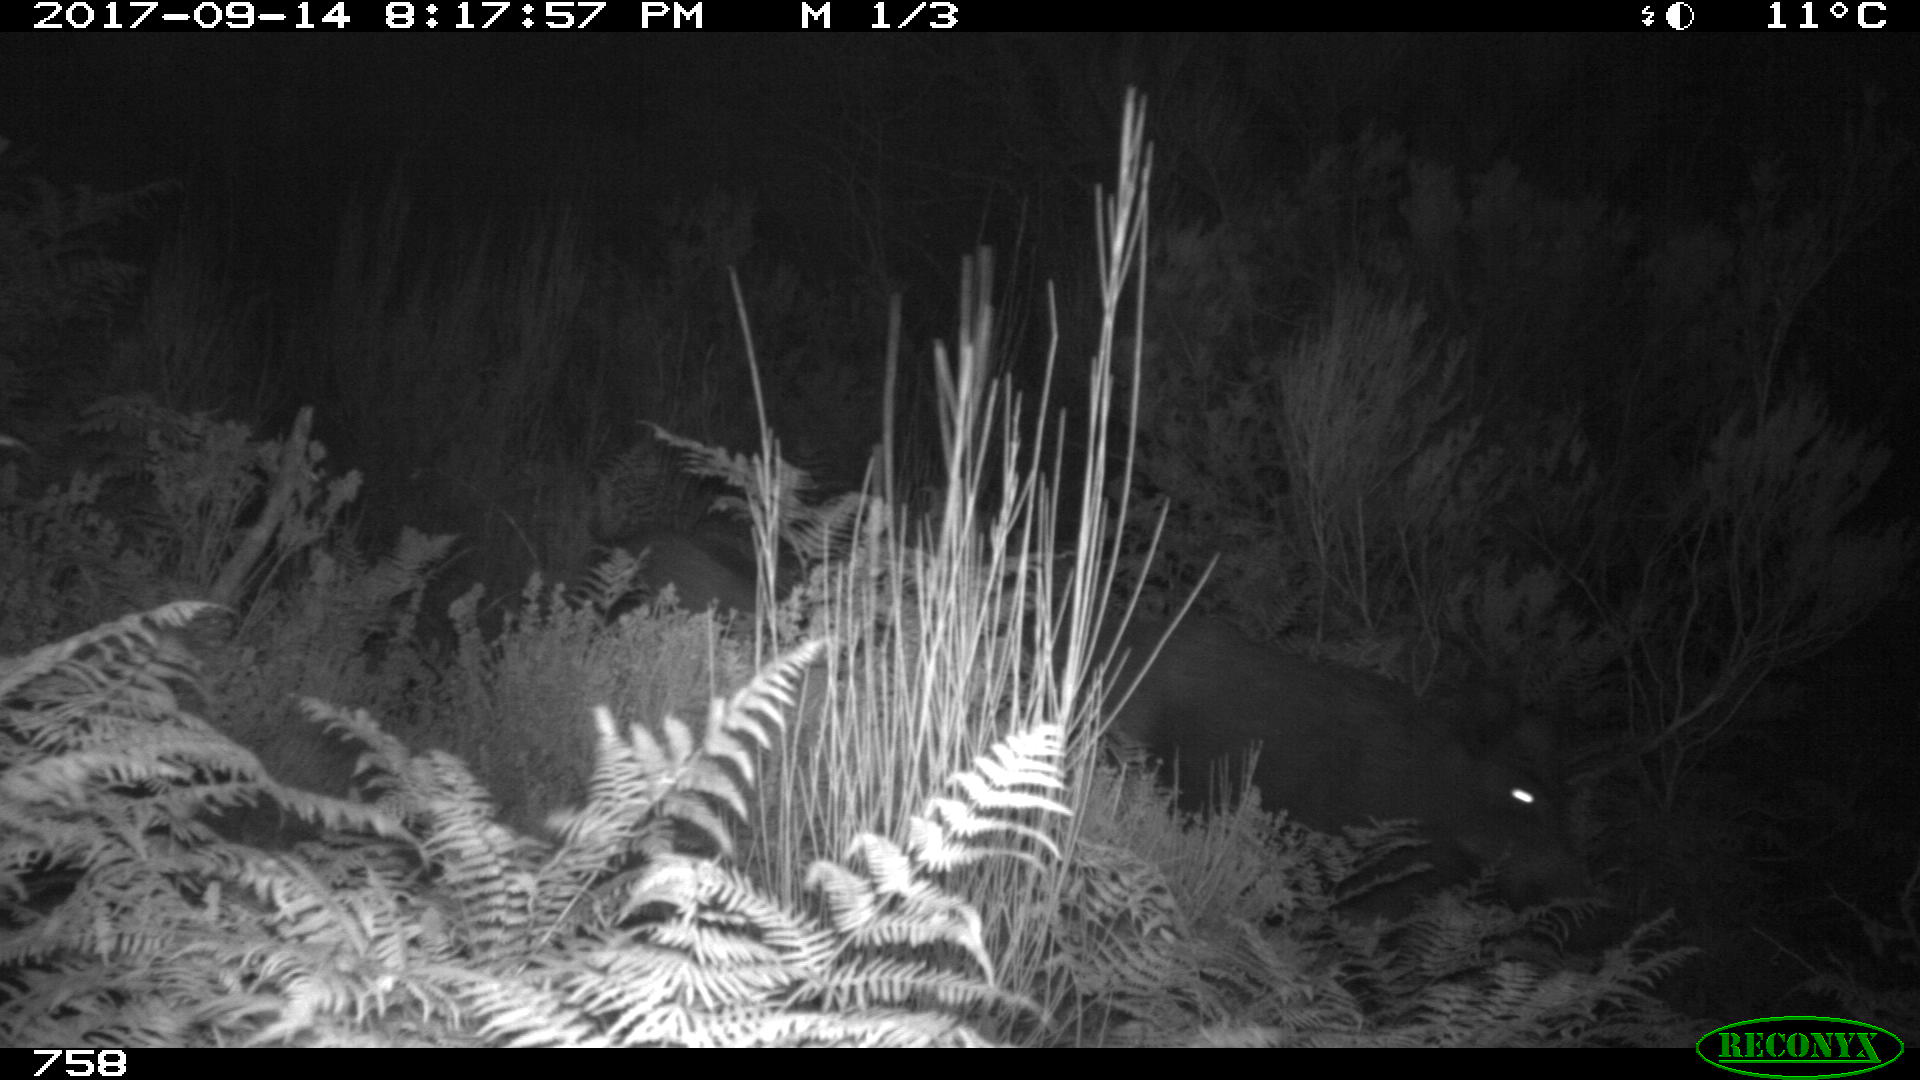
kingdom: Animalia
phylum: Chordata
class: Mammalia
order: Artiodactyla
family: Suidae
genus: Sus
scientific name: Sus scrofa
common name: Wild boar
